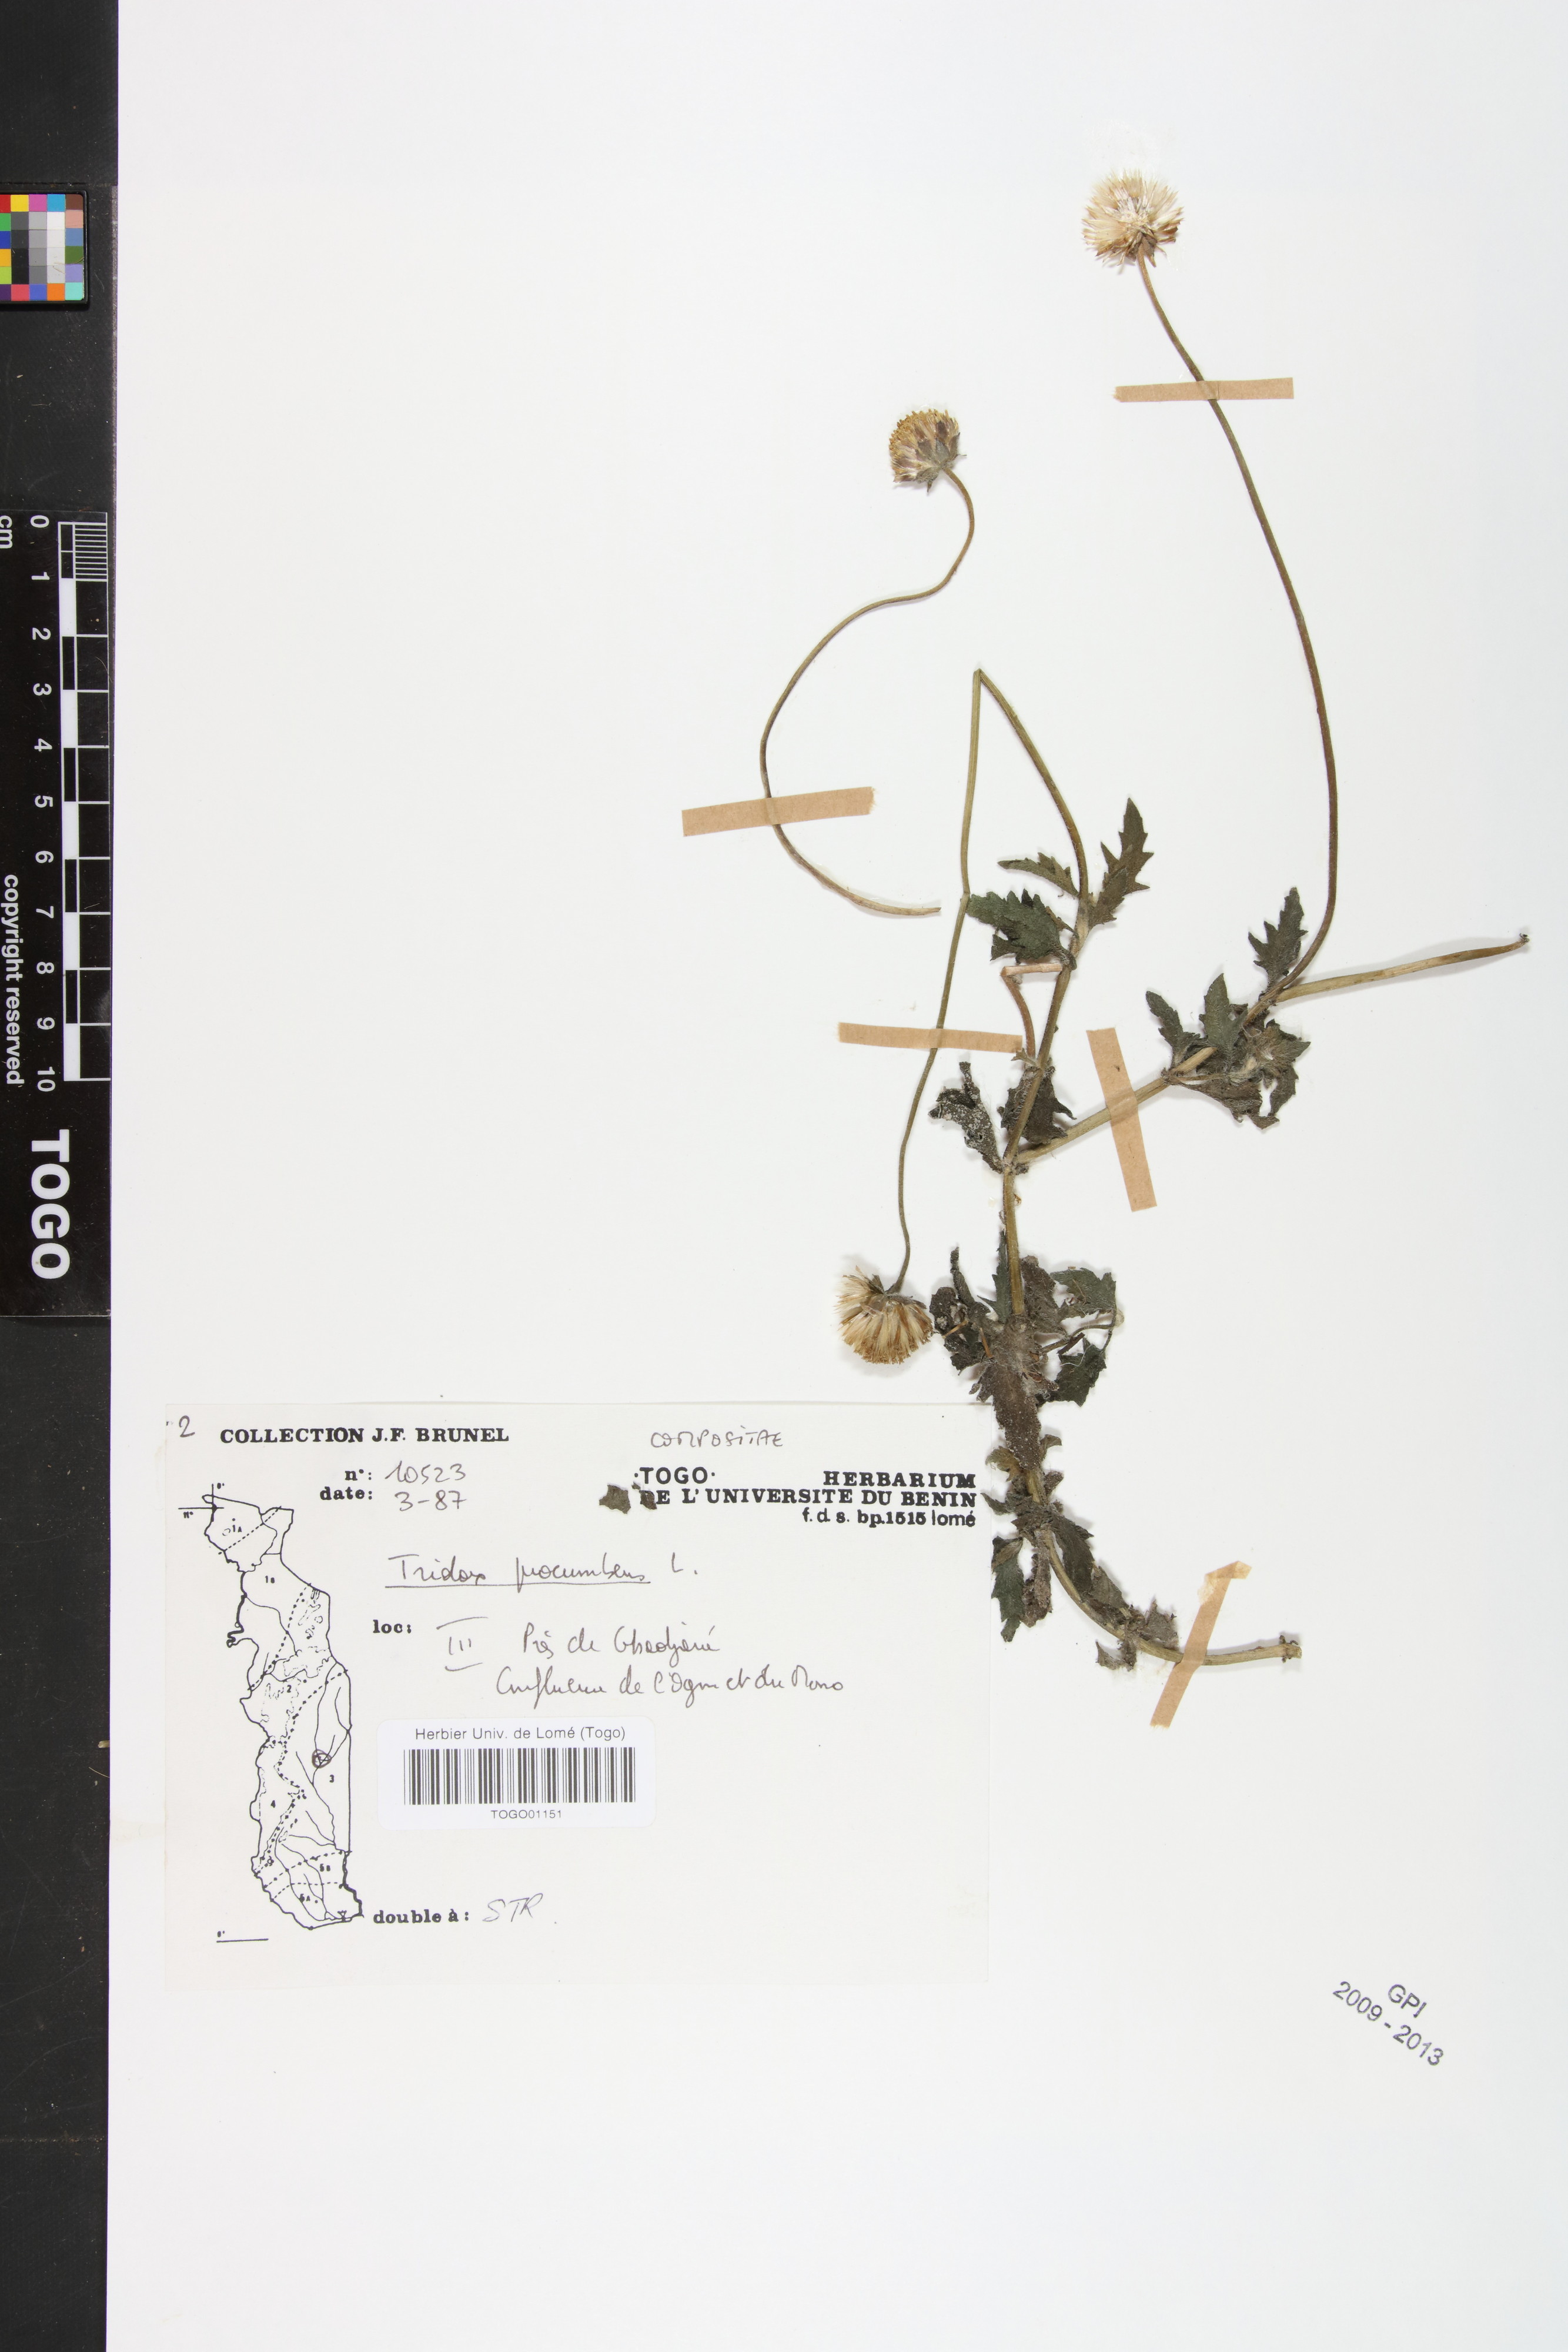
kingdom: Plantae
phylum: Tracheophyta
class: Magnoliopsida
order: Asterales
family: Asteraceae
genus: Tridax
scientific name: Tridax procumbens
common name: Coatbuttons
